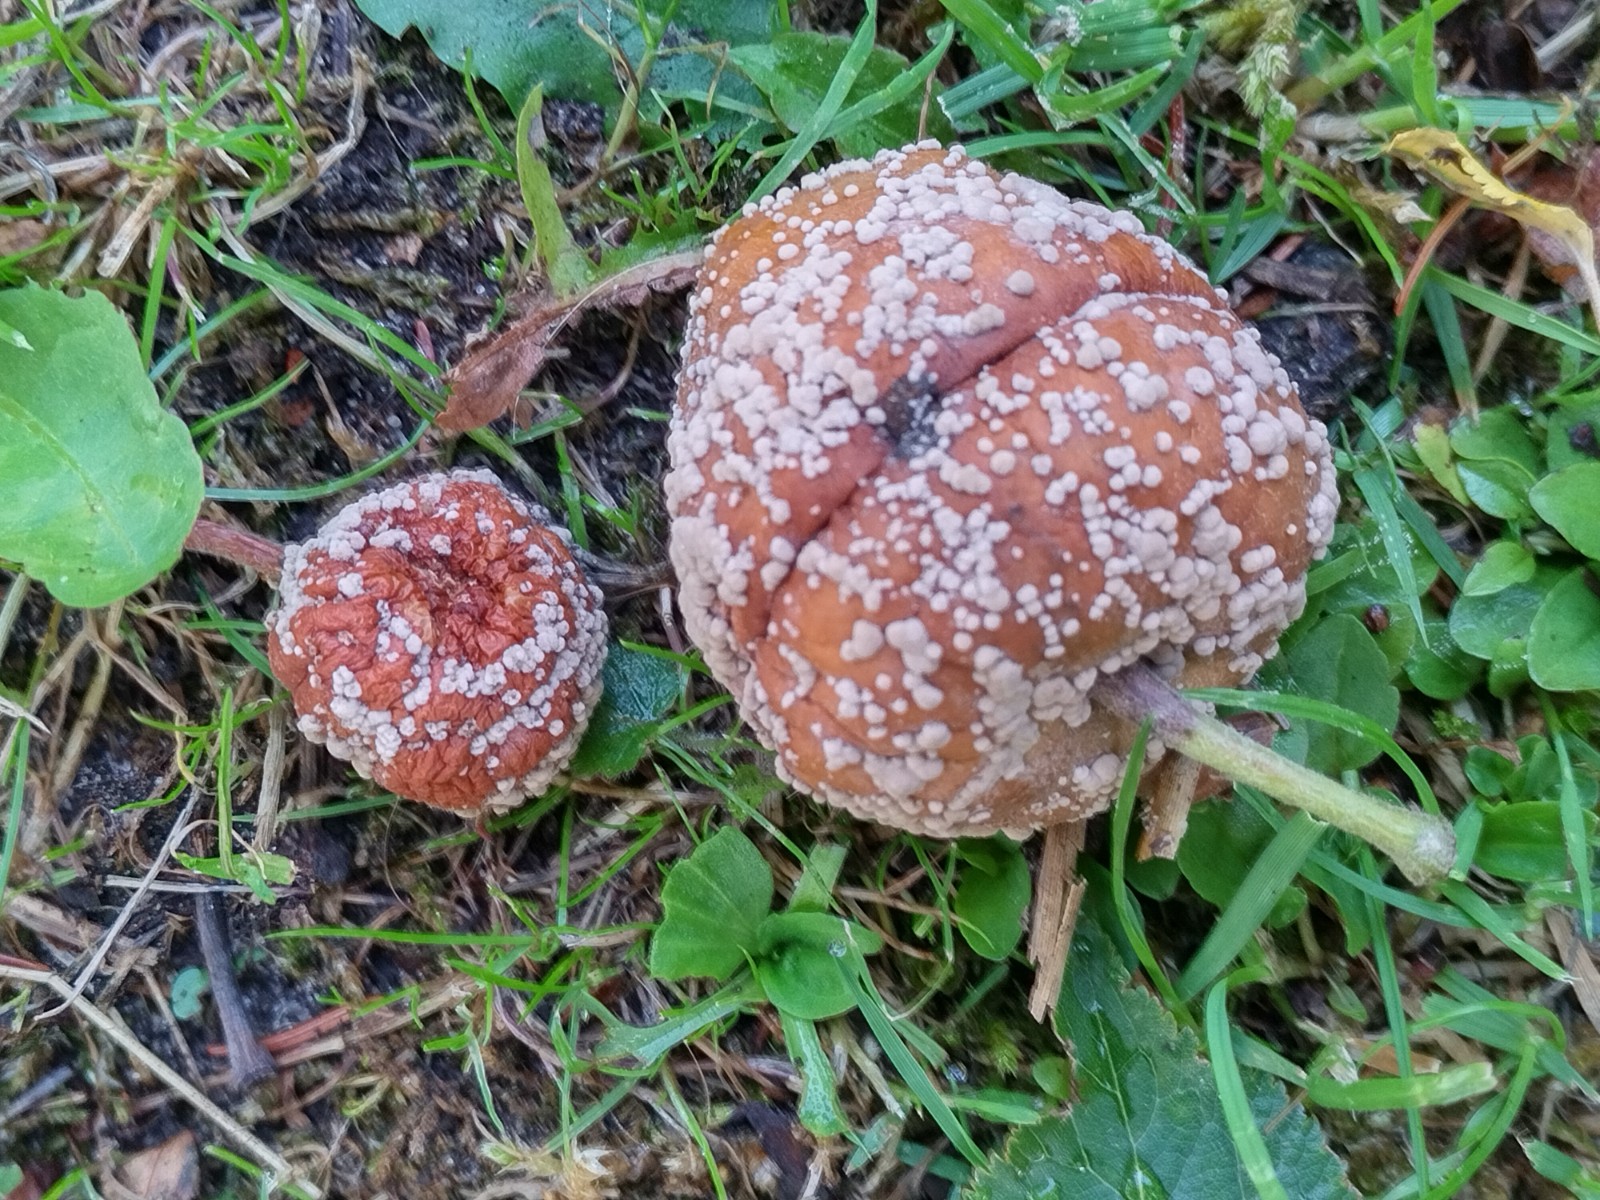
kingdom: Fungi
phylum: Ascomycota
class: Leotiomycetes
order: Helotiales
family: Sclerotiniaceae
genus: Monilinia
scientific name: Monilinia fructigena
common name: æble-knoldskive
